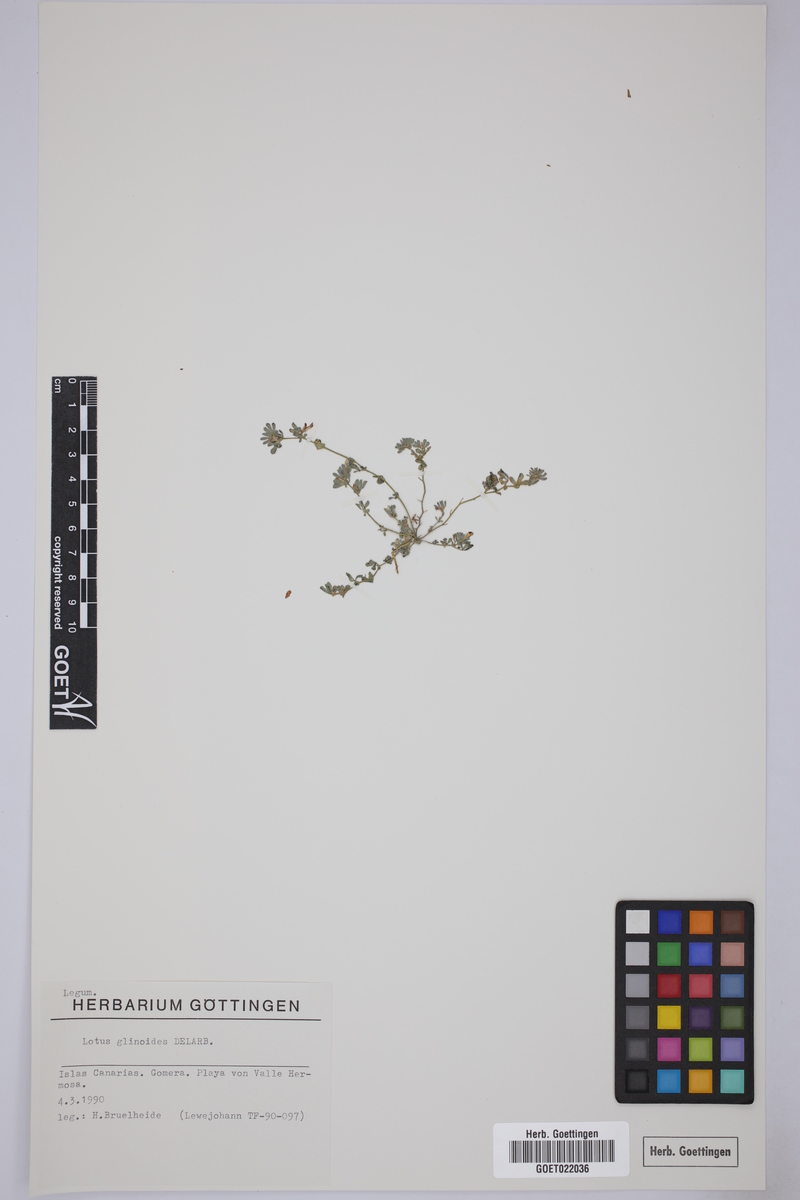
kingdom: Plantae
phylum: Tracheophyta
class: Magnoliopsida
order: Fabales
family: Fabaceae
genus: Lotus
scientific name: Lotus glinoides
